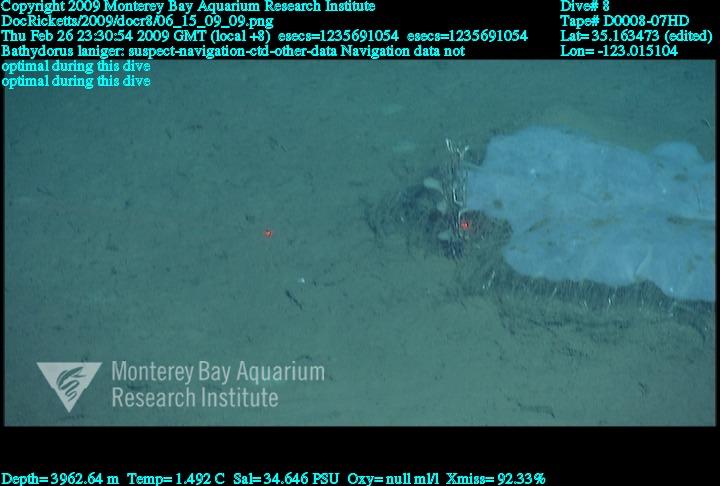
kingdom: Animalia
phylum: Porifera
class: Hexactinellida
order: Lyssacinosida
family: Rossellidae
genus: Bathydorus
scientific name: Bathydorus laniger
